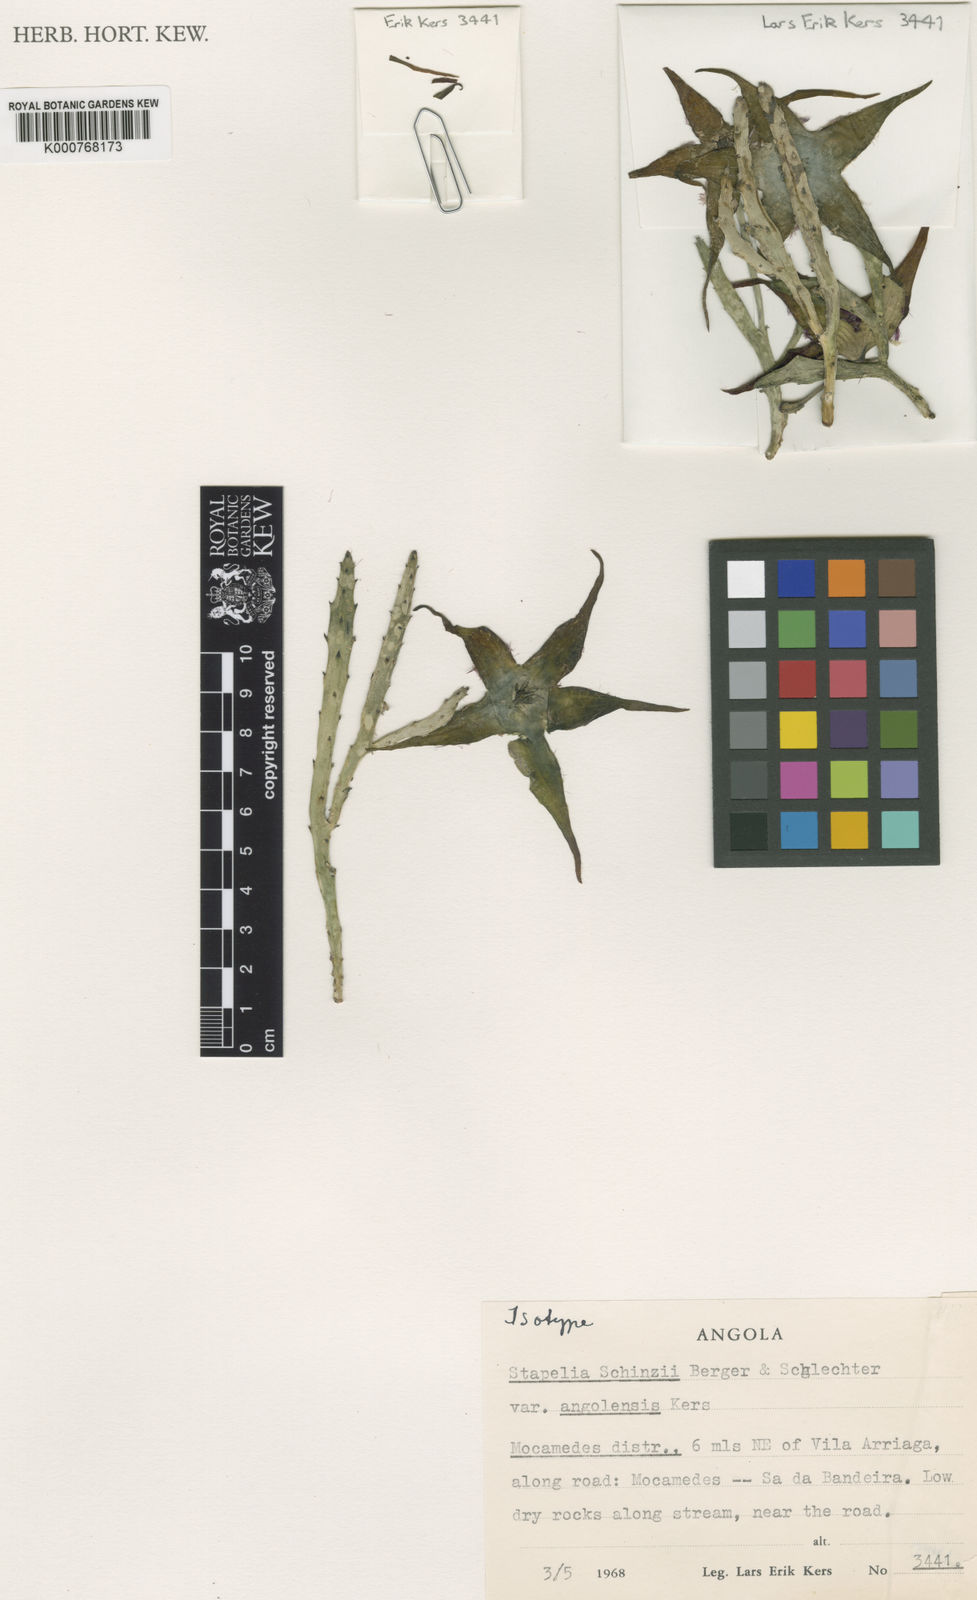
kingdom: Plantae
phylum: Tracheophyta
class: Magnoliopsida
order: Gentianales
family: Apocynaceae
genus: Ceropegia
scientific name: Ceropegia schinzii
